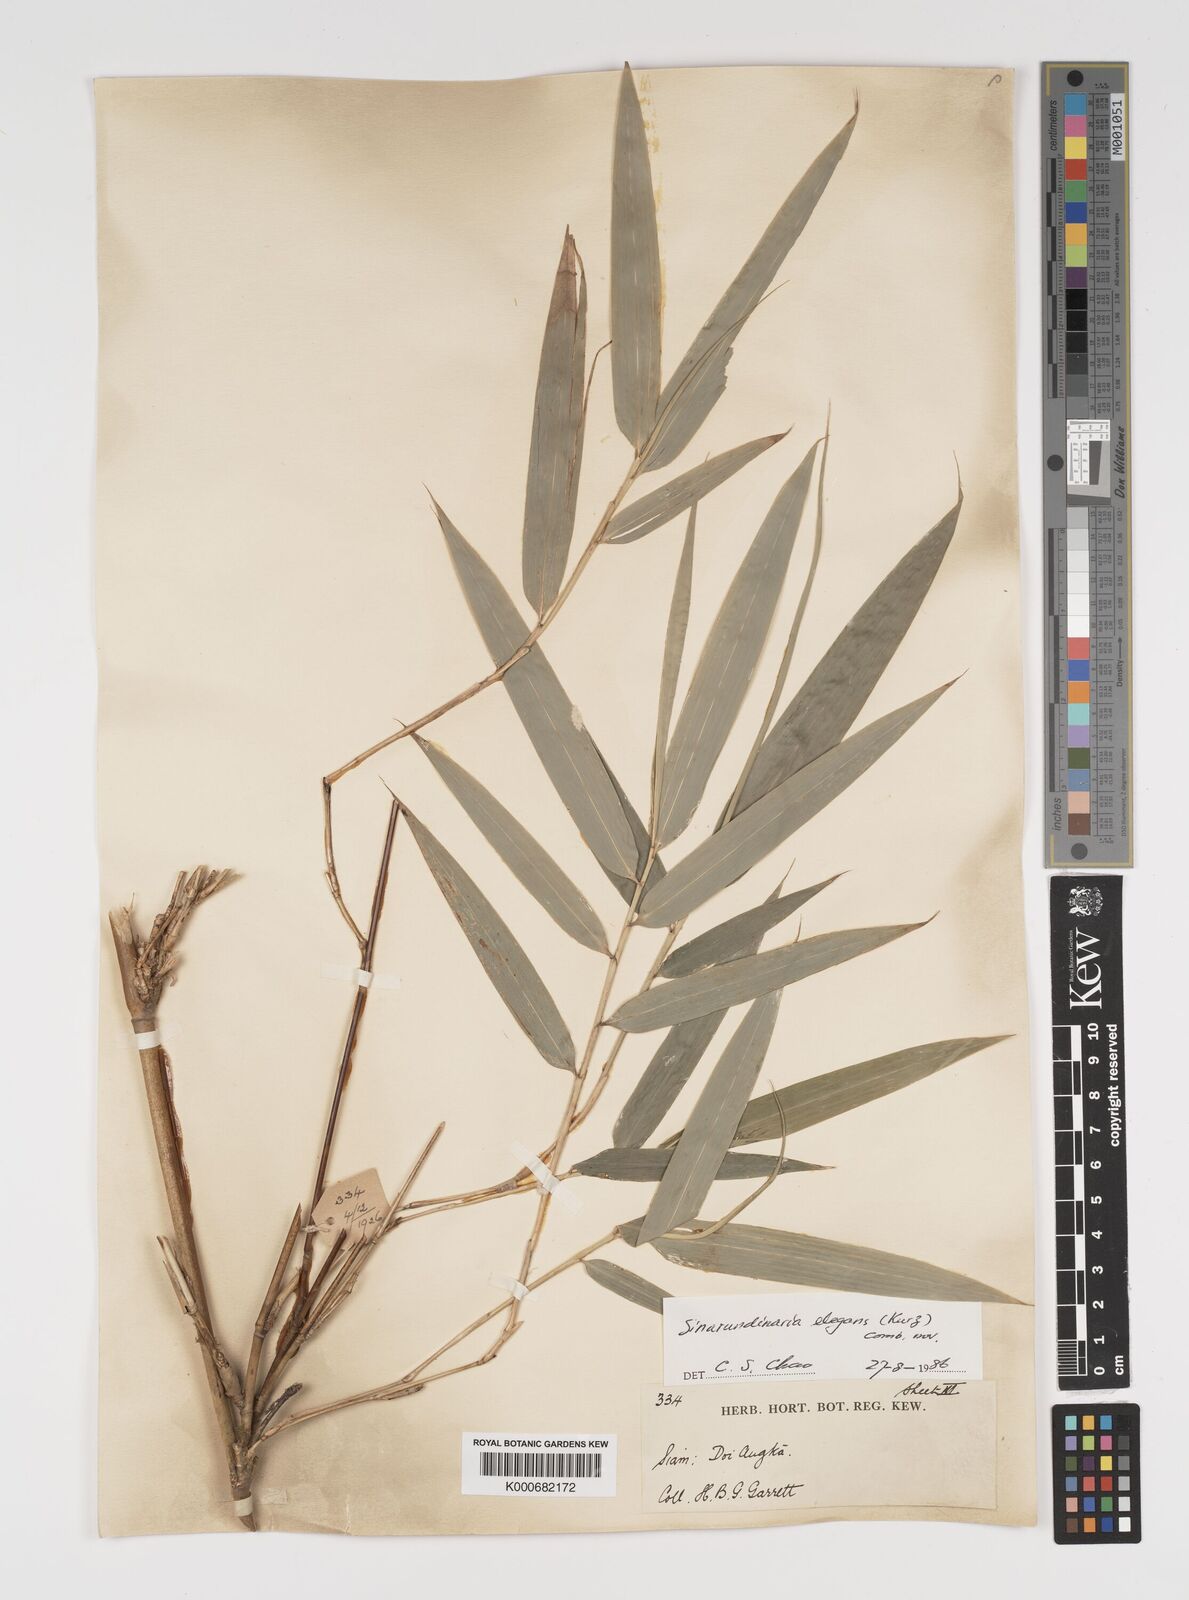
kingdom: Plantae
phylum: Tracheophyta
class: Liliopsida
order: Poales
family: Poaceae
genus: Yushania
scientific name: Yushania schmidiana
